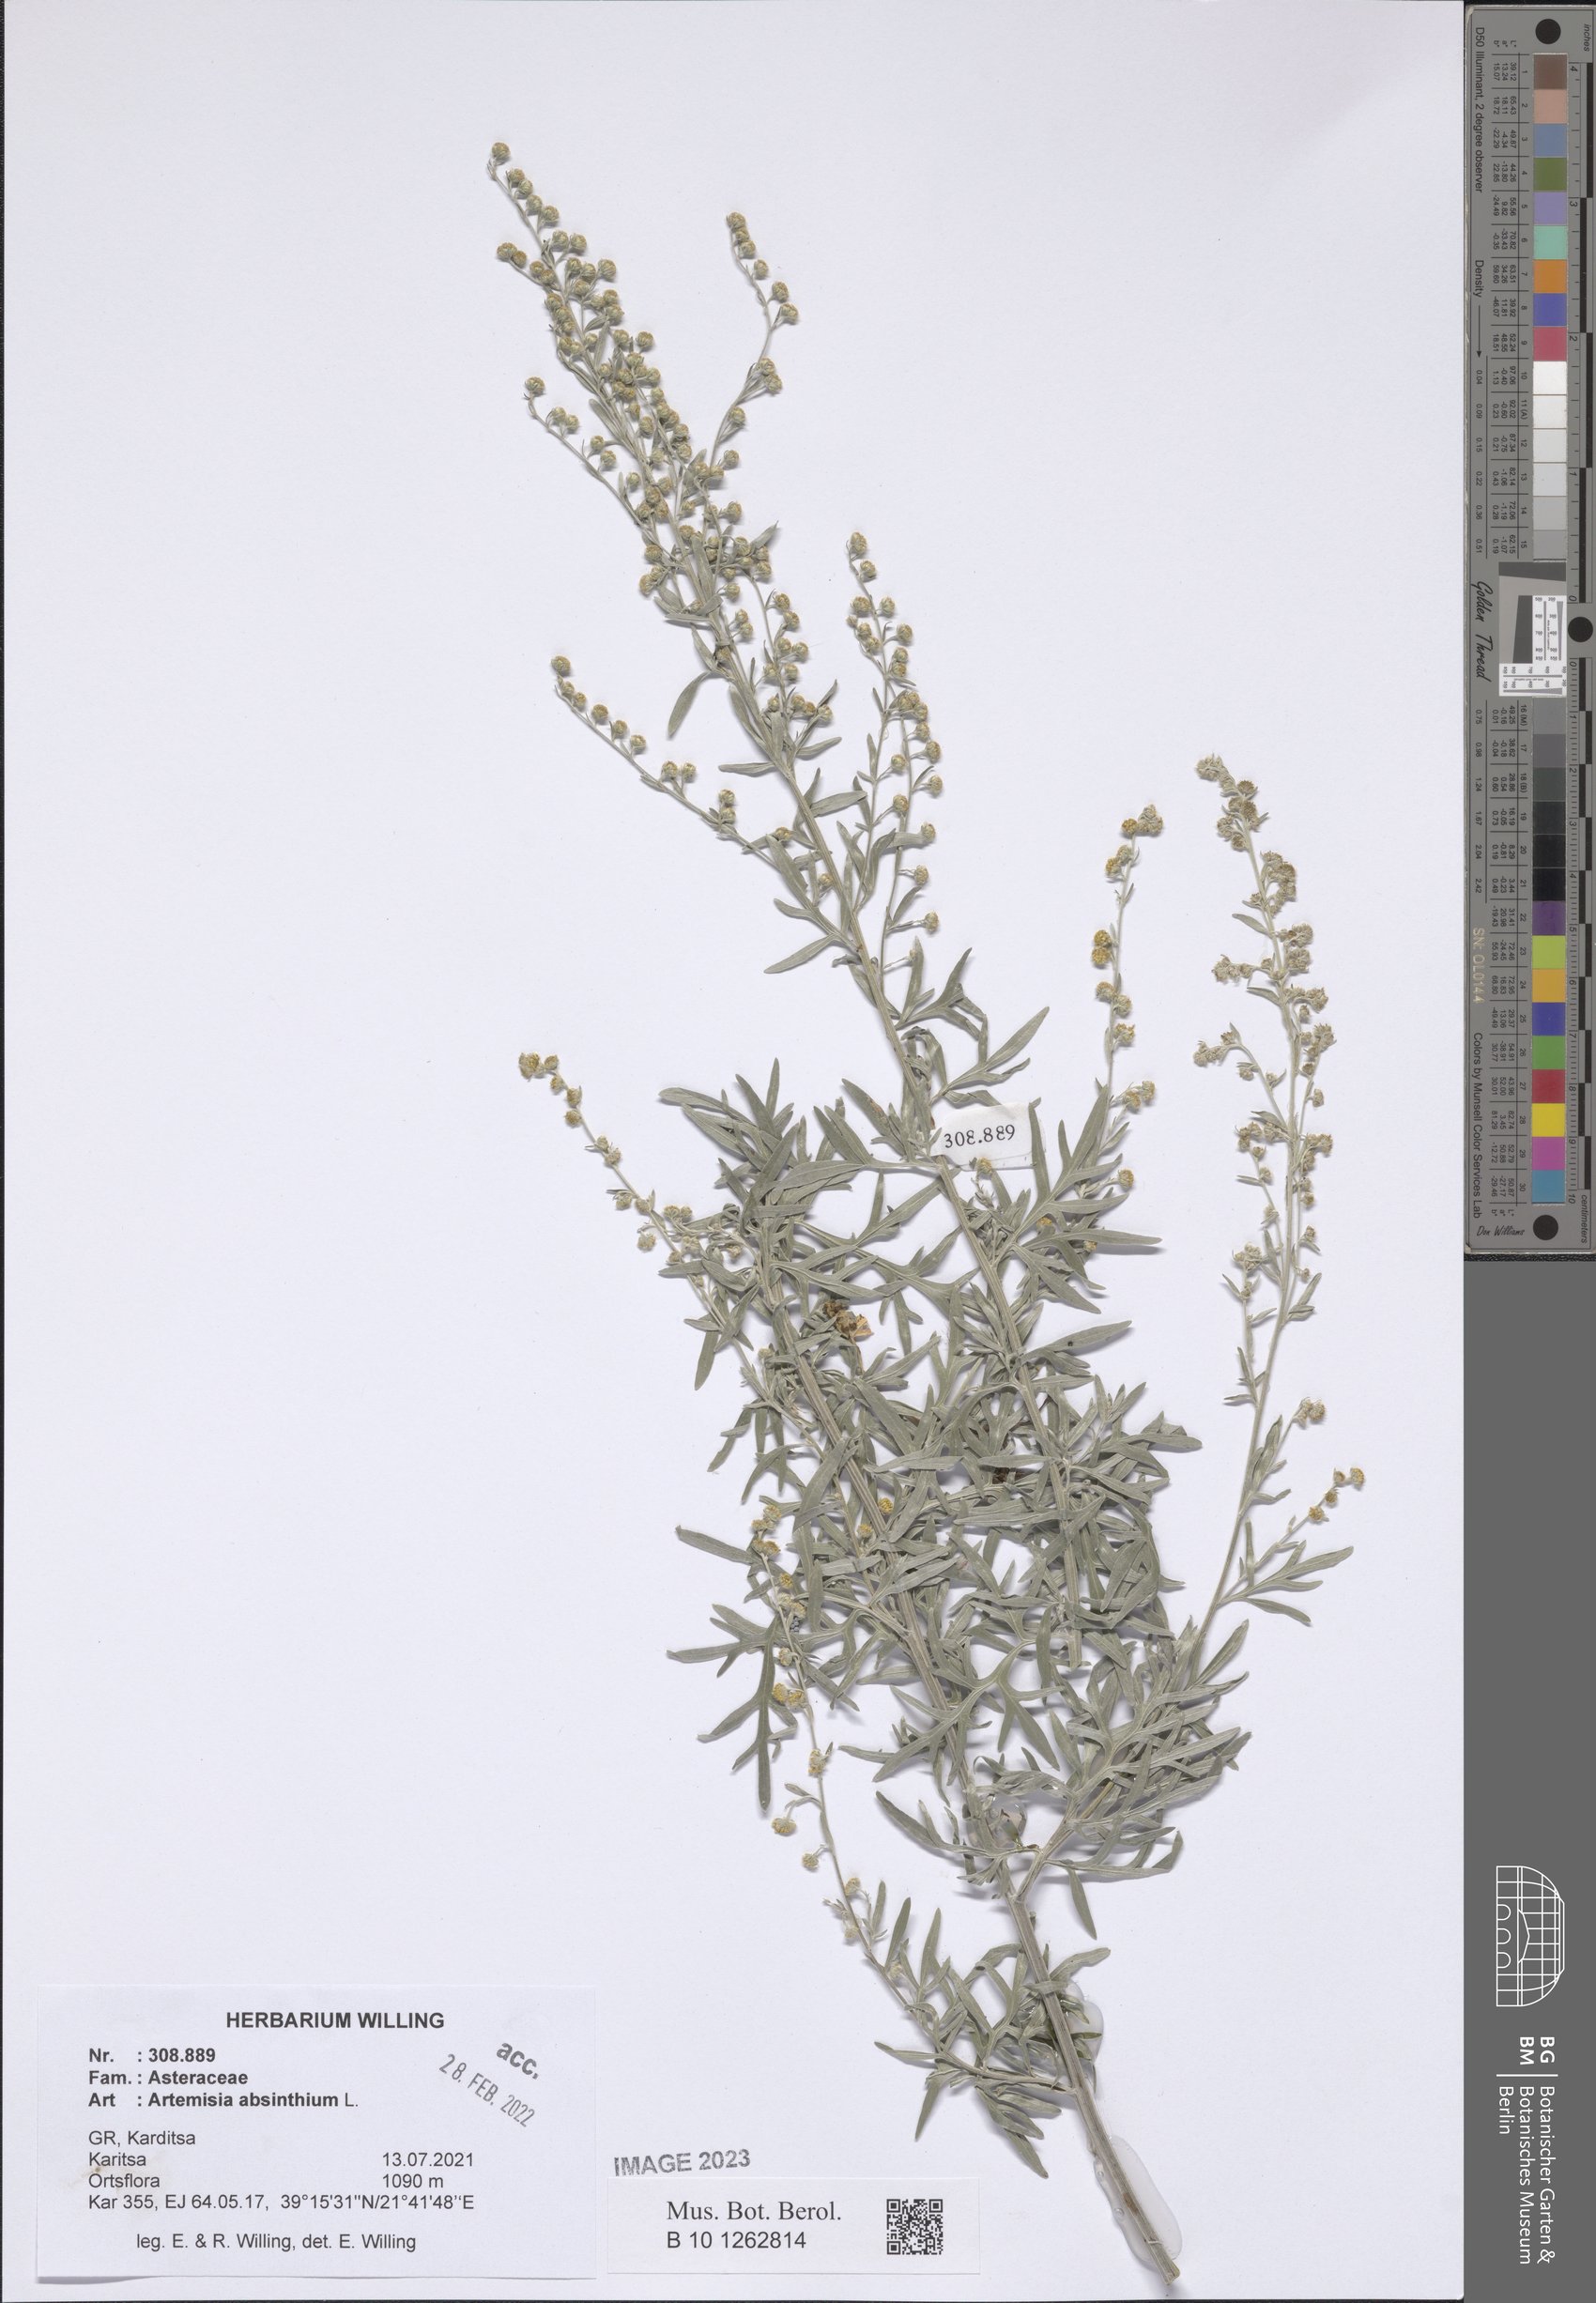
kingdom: Plantae
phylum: Tracheophyta
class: Magnoliopsida
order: Asterales
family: Asteraceae
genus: Artemisia
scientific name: Artemisia absinthium
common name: Wormwood
